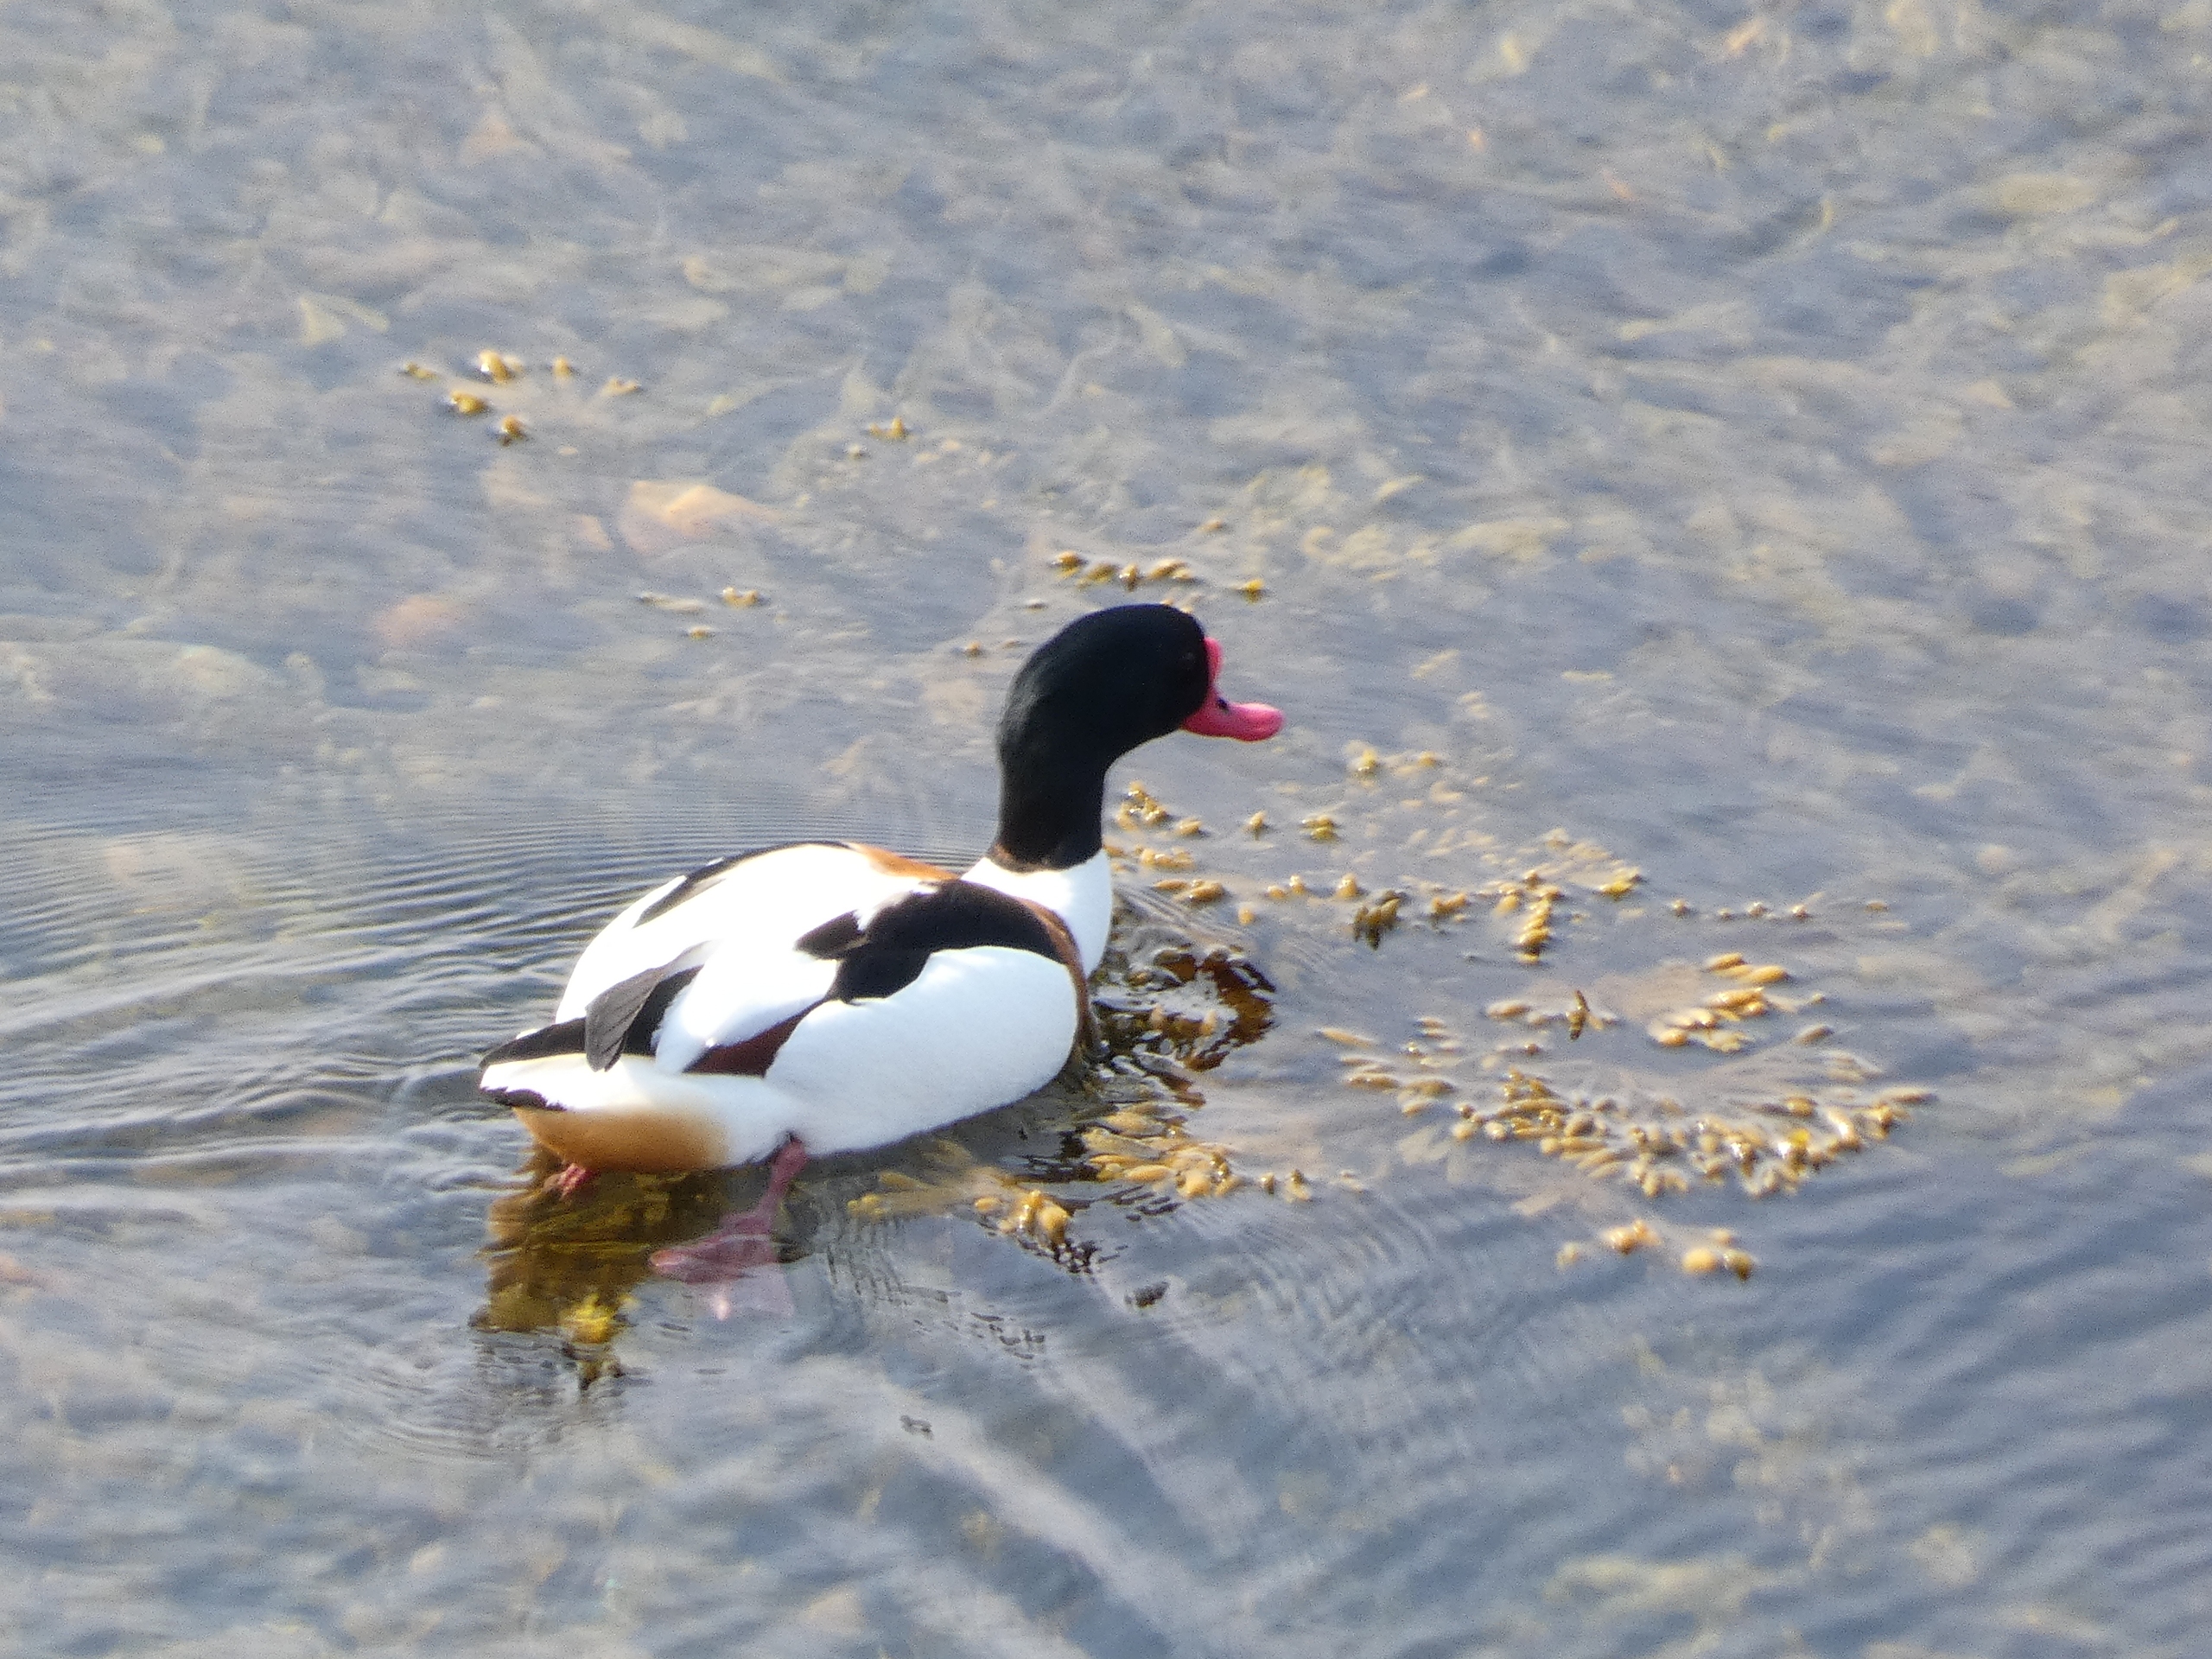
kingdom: Animalia
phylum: Chordata
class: Aves
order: Anseriformes
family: Anatidae
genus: Tadorna
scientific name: Tadorna tadorna
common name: Gravand
